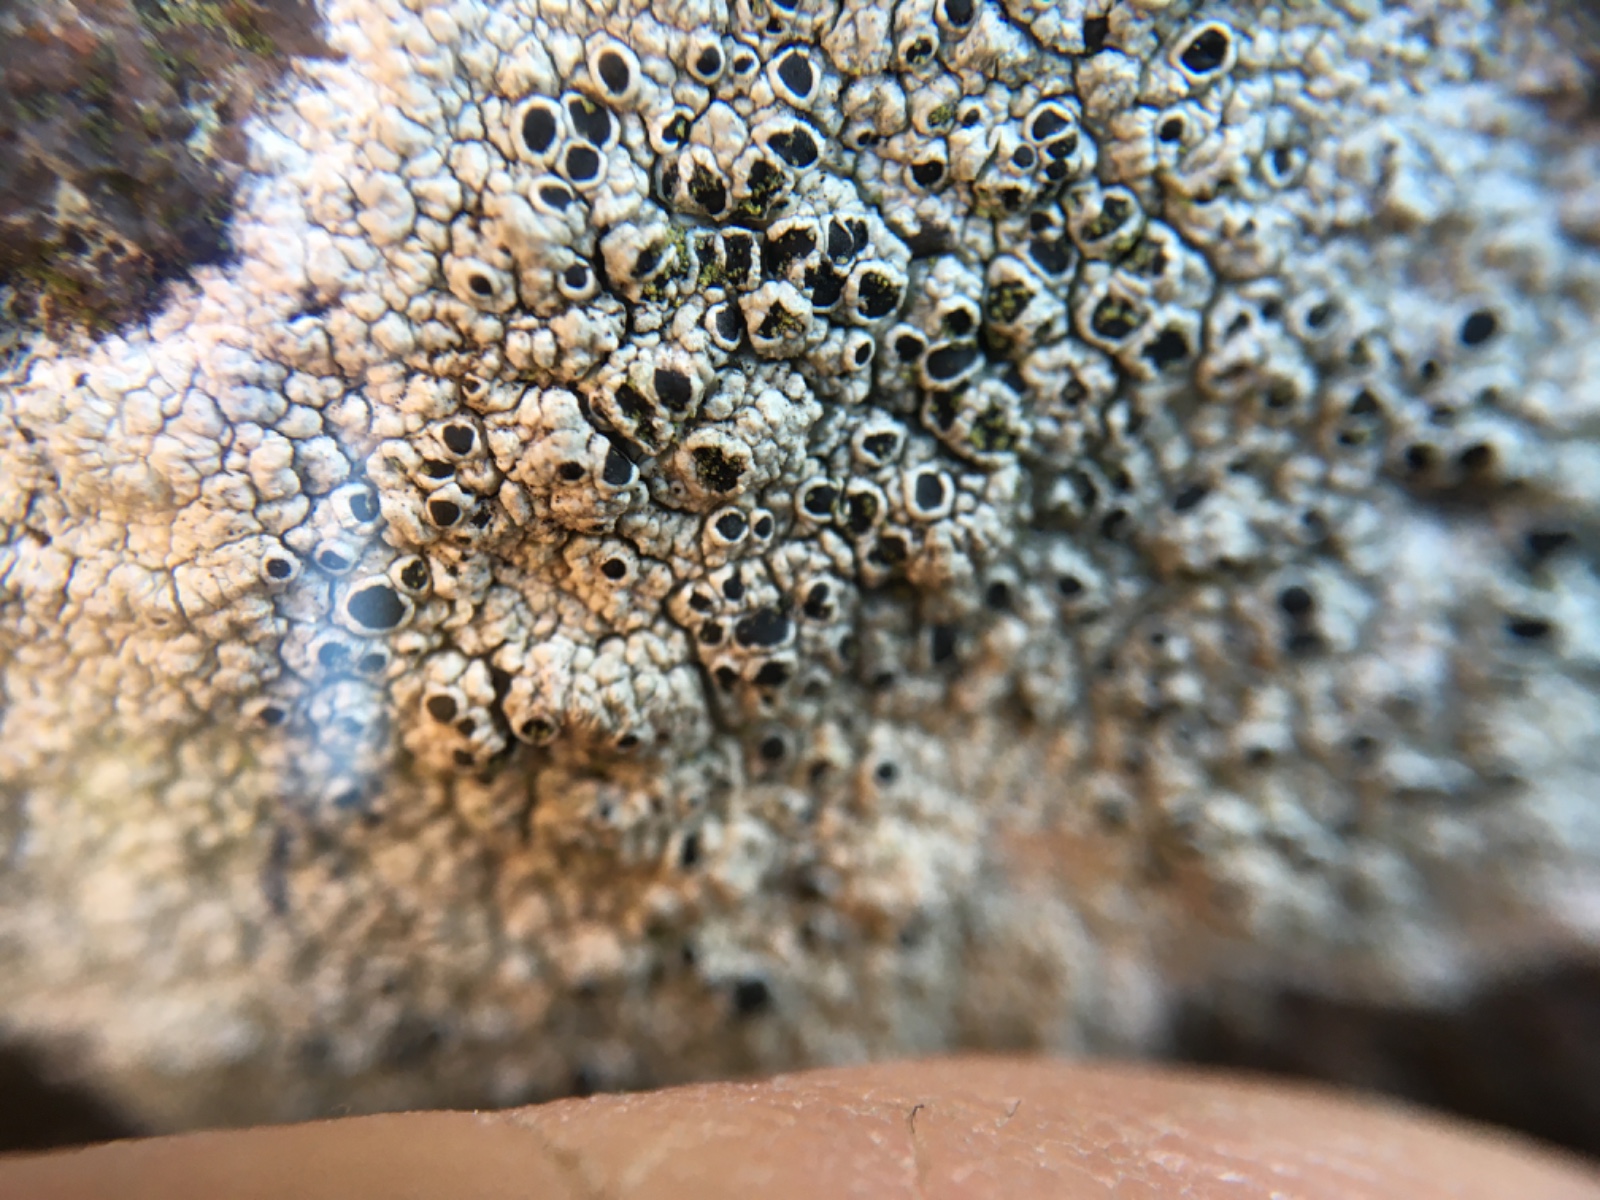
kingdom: Fungi
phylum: Ascomycota
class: Lecanoromycetes
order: Lecanorales
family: Tephromelataceae
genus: Tephromela
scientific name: Tephromela atra
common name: sortfrugtet kantskivelav
